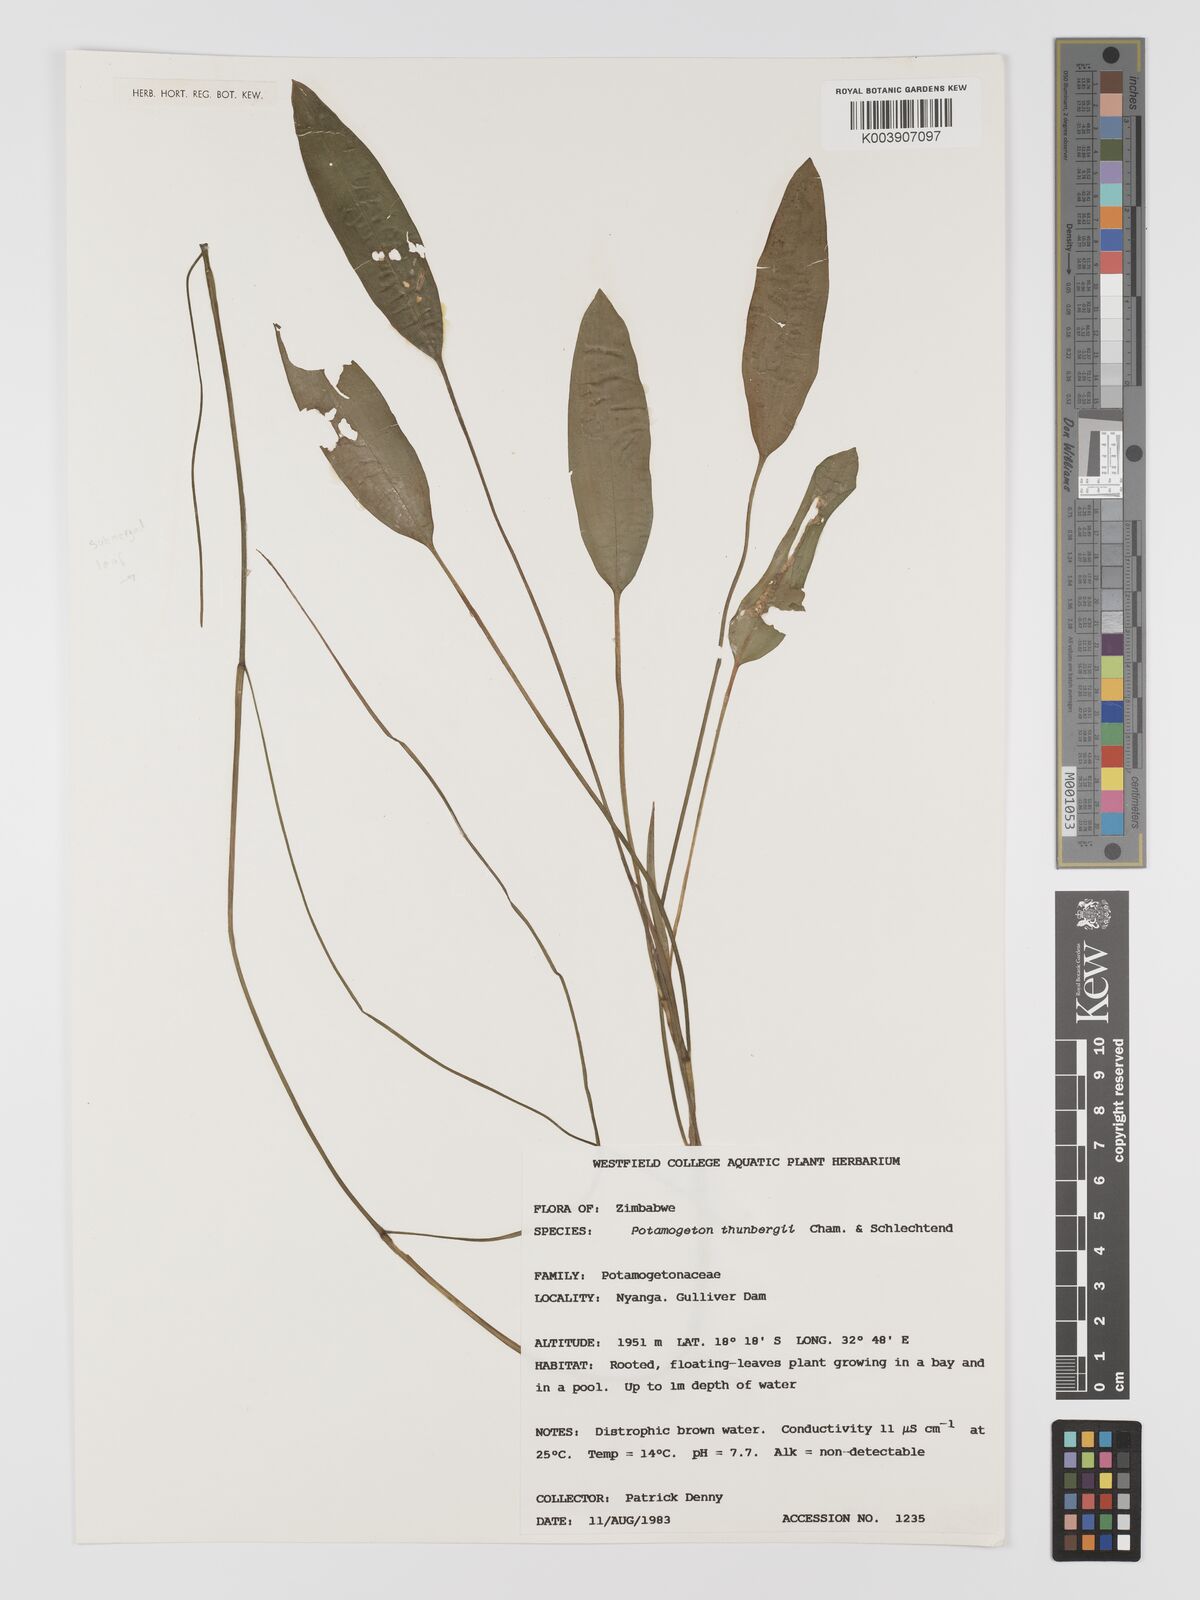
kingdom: Plantae
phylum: Tracheophyta
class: Liliopsida
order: Alismatales
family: Potamogetonaceae
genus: Potamogeton
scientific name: Potamogeton nodosus
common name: Loddon pondweed
